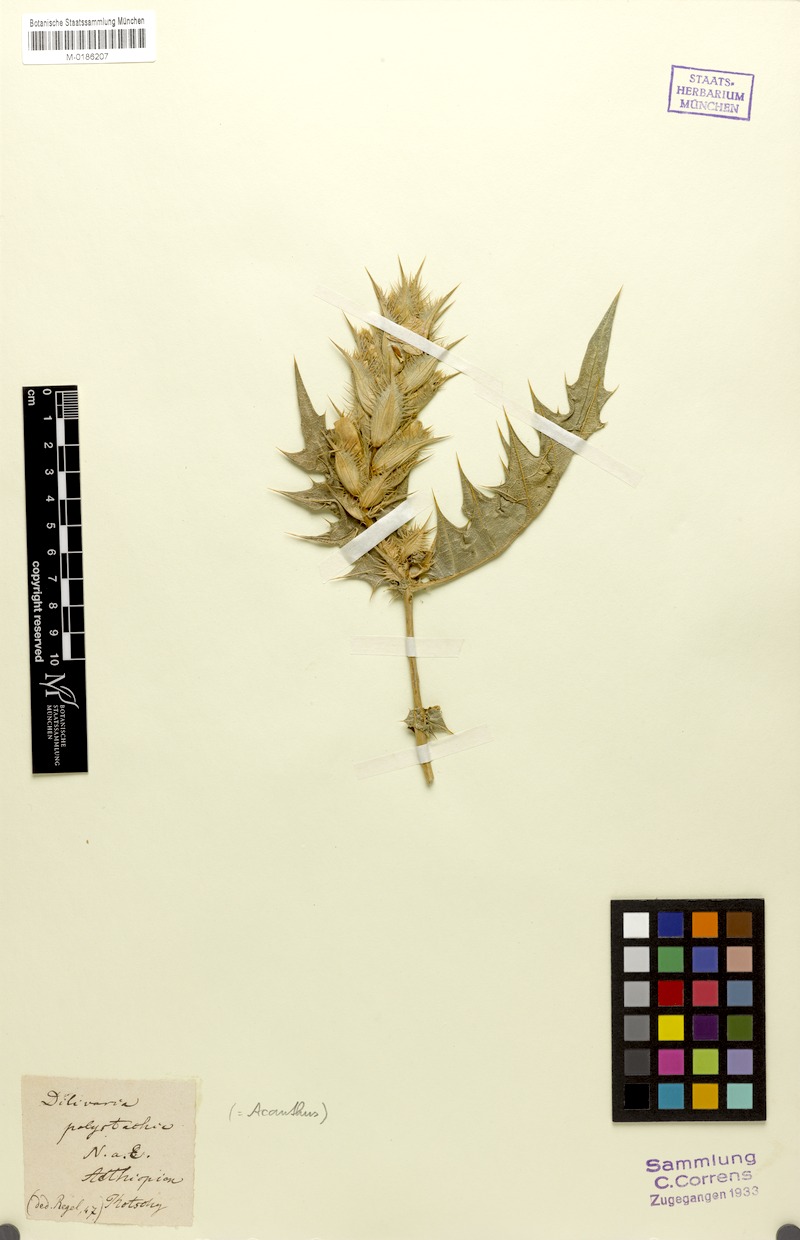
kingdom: Plantae
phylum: Tracheophyta
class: Magnoliopsida
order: Lamiales
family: Acanthaceae
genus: Acanthus
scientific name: Acanthus polystachyus
